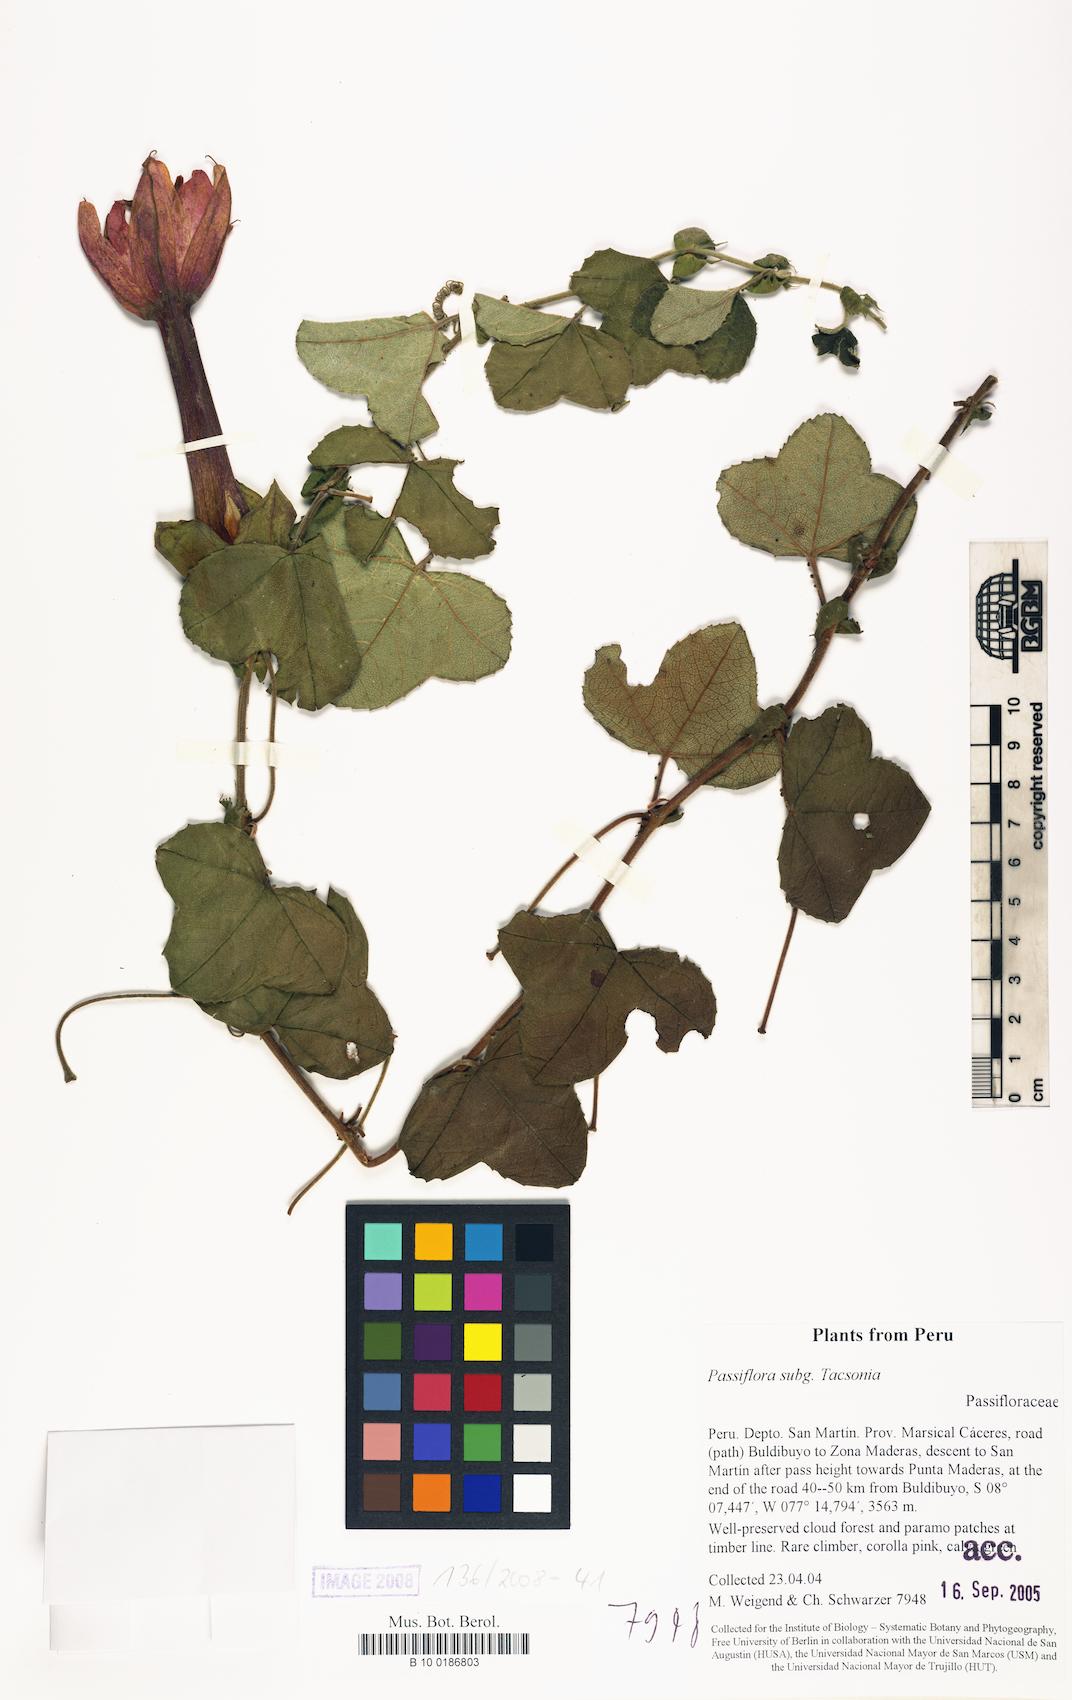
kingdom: Plantae
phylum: Tracheophyta
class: Magnoliopsida
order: Malpighiales
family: Passifloraceae
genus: Passiflora
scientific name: Passiflora
